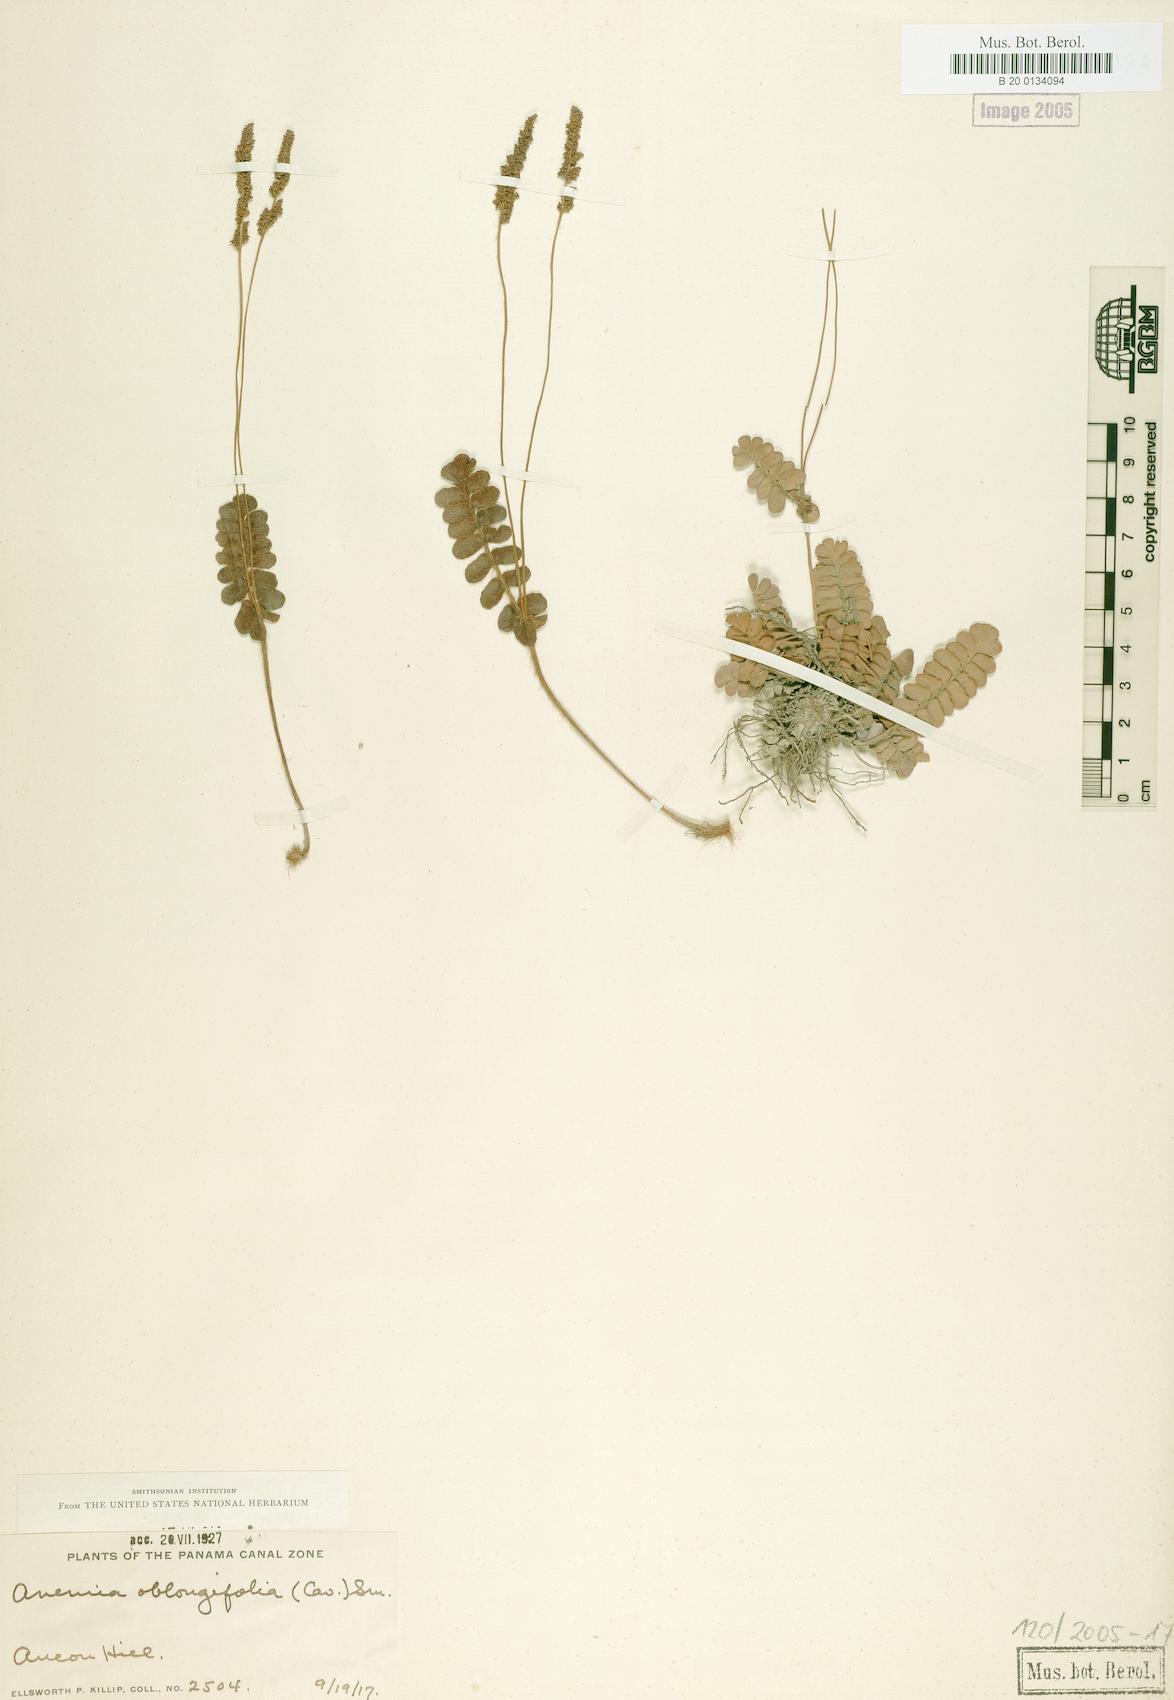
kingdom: Plantae
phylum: Tracheophyta
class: Polypodiopsida
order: Schizaeales
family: Anemiaceae
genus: Anemia
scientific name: Anemia oblongifolia
